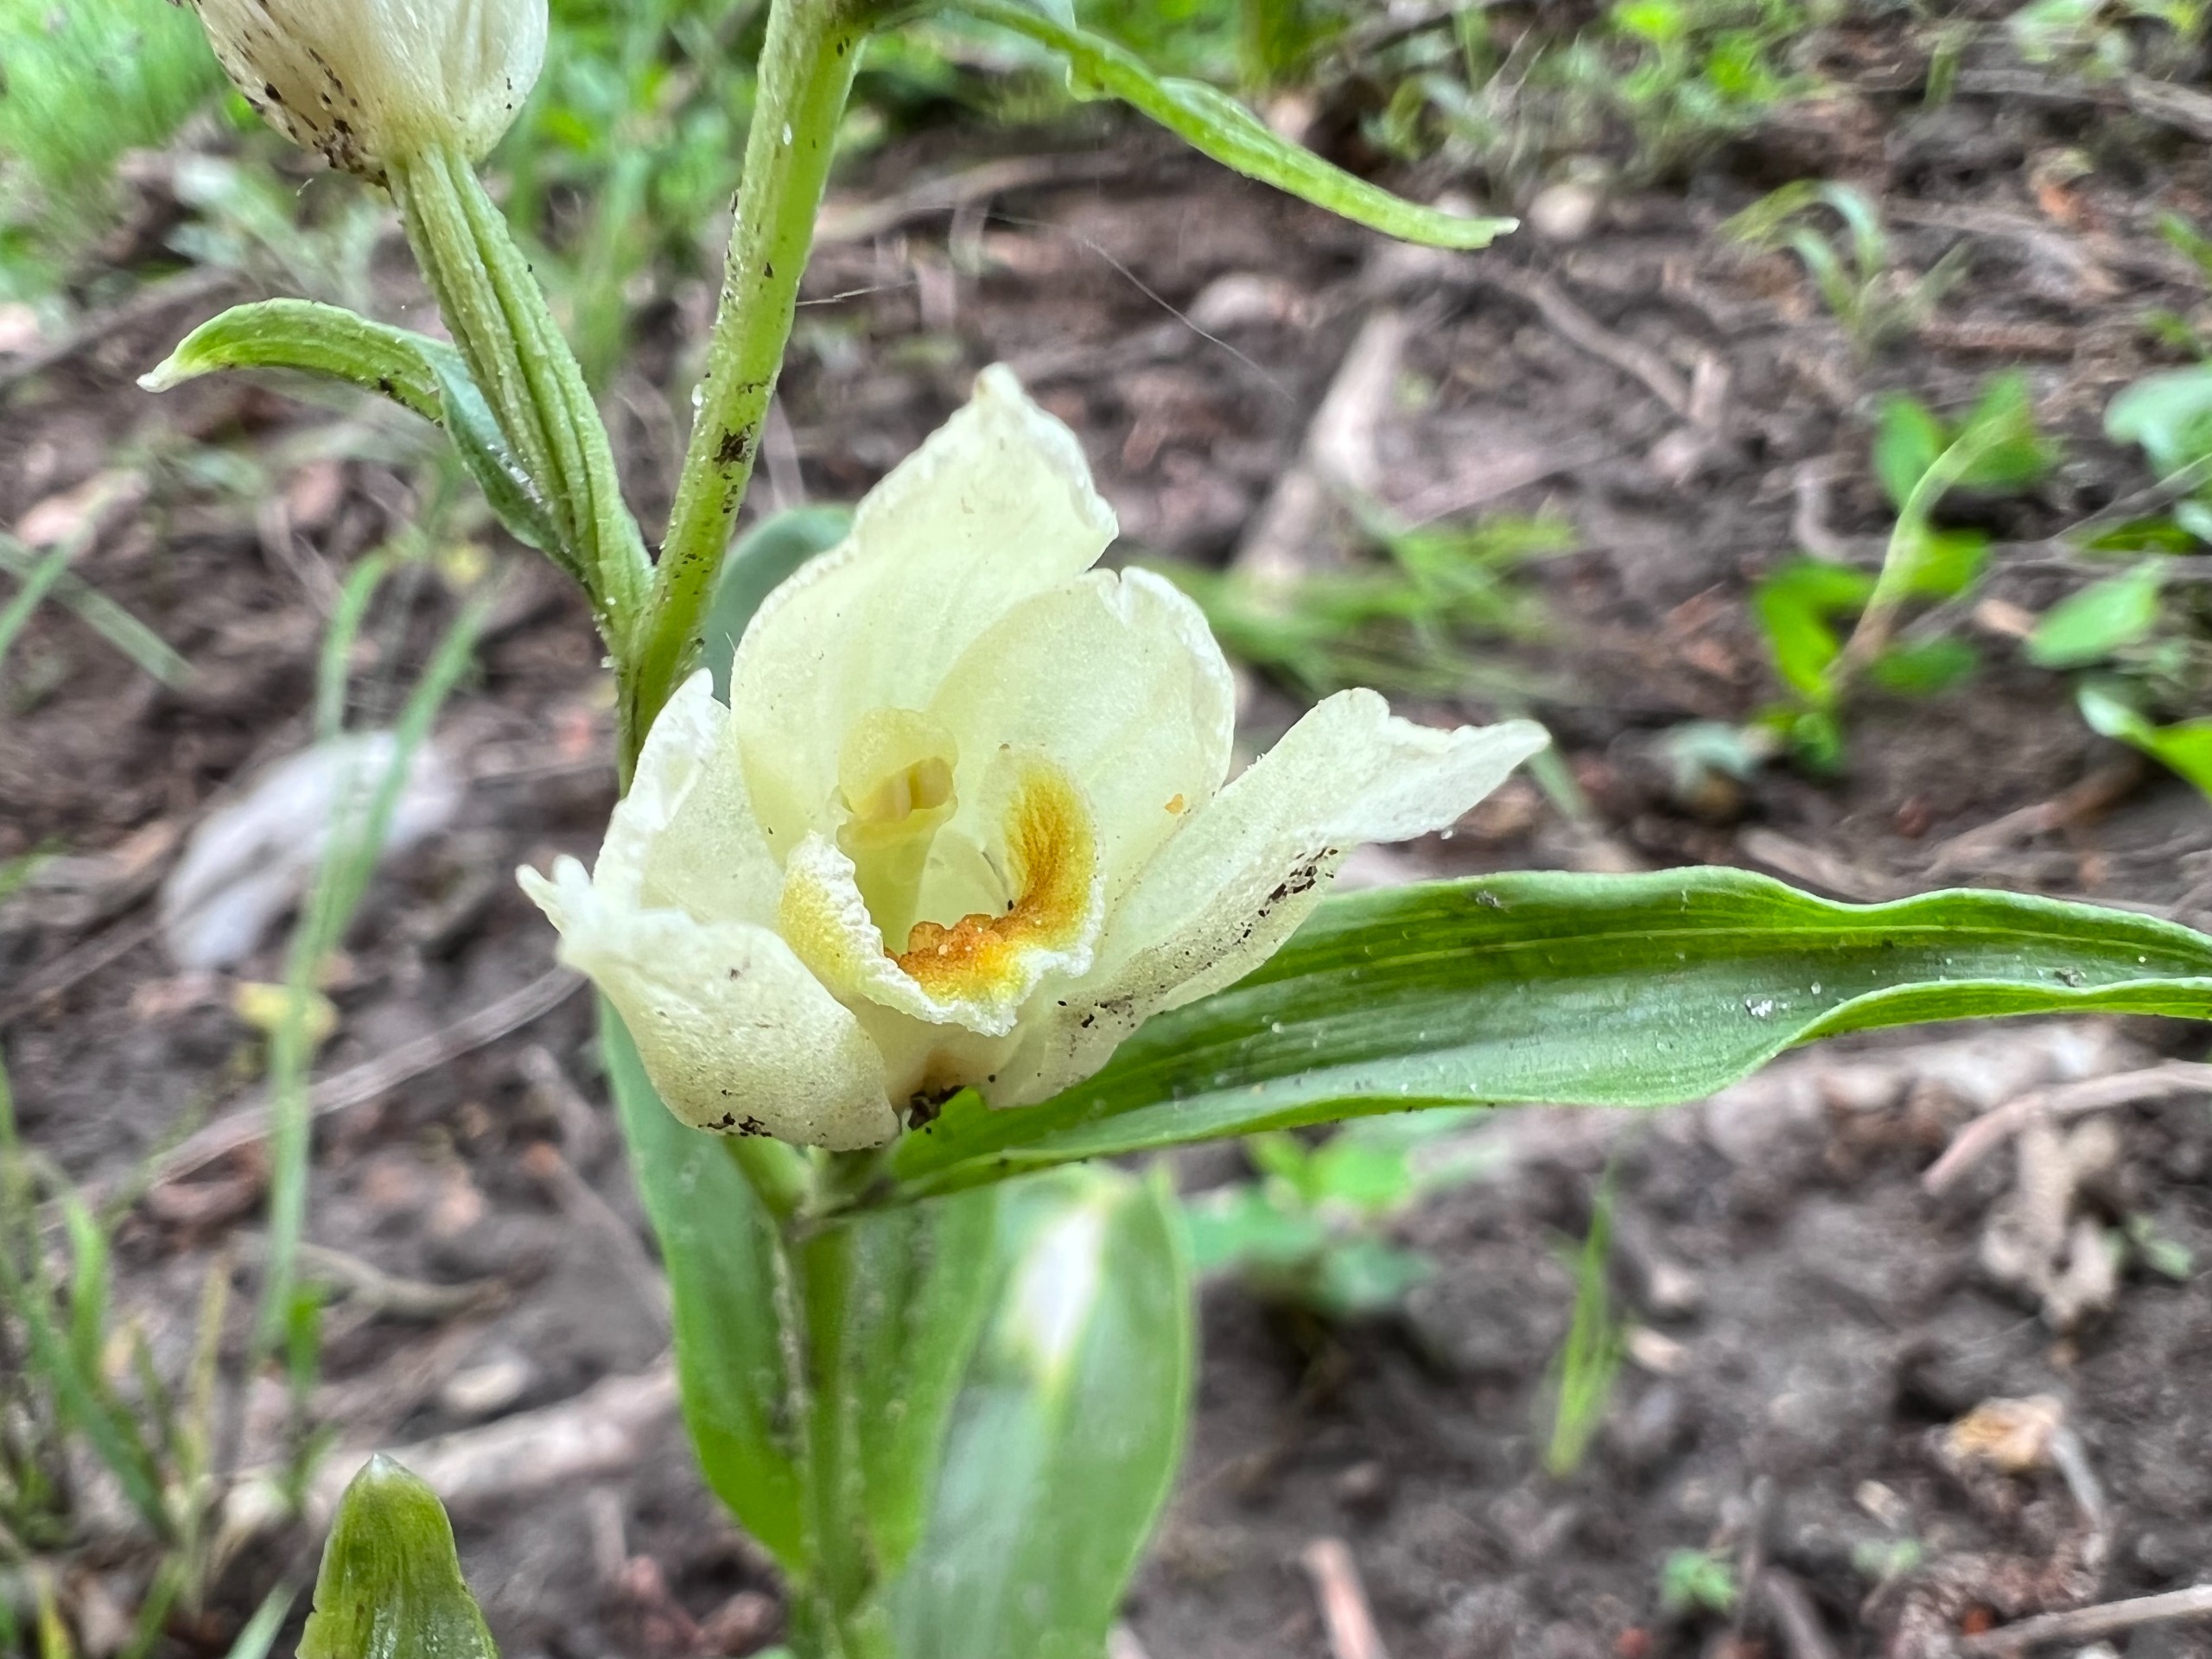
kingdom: Plantae
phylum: Tracheophyta
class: Liliopsida
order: Asparagales
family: Orchidaceae
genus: Cephalanthera
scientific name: Cephalanthera damasonium
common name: Hvidgul skovlilje
